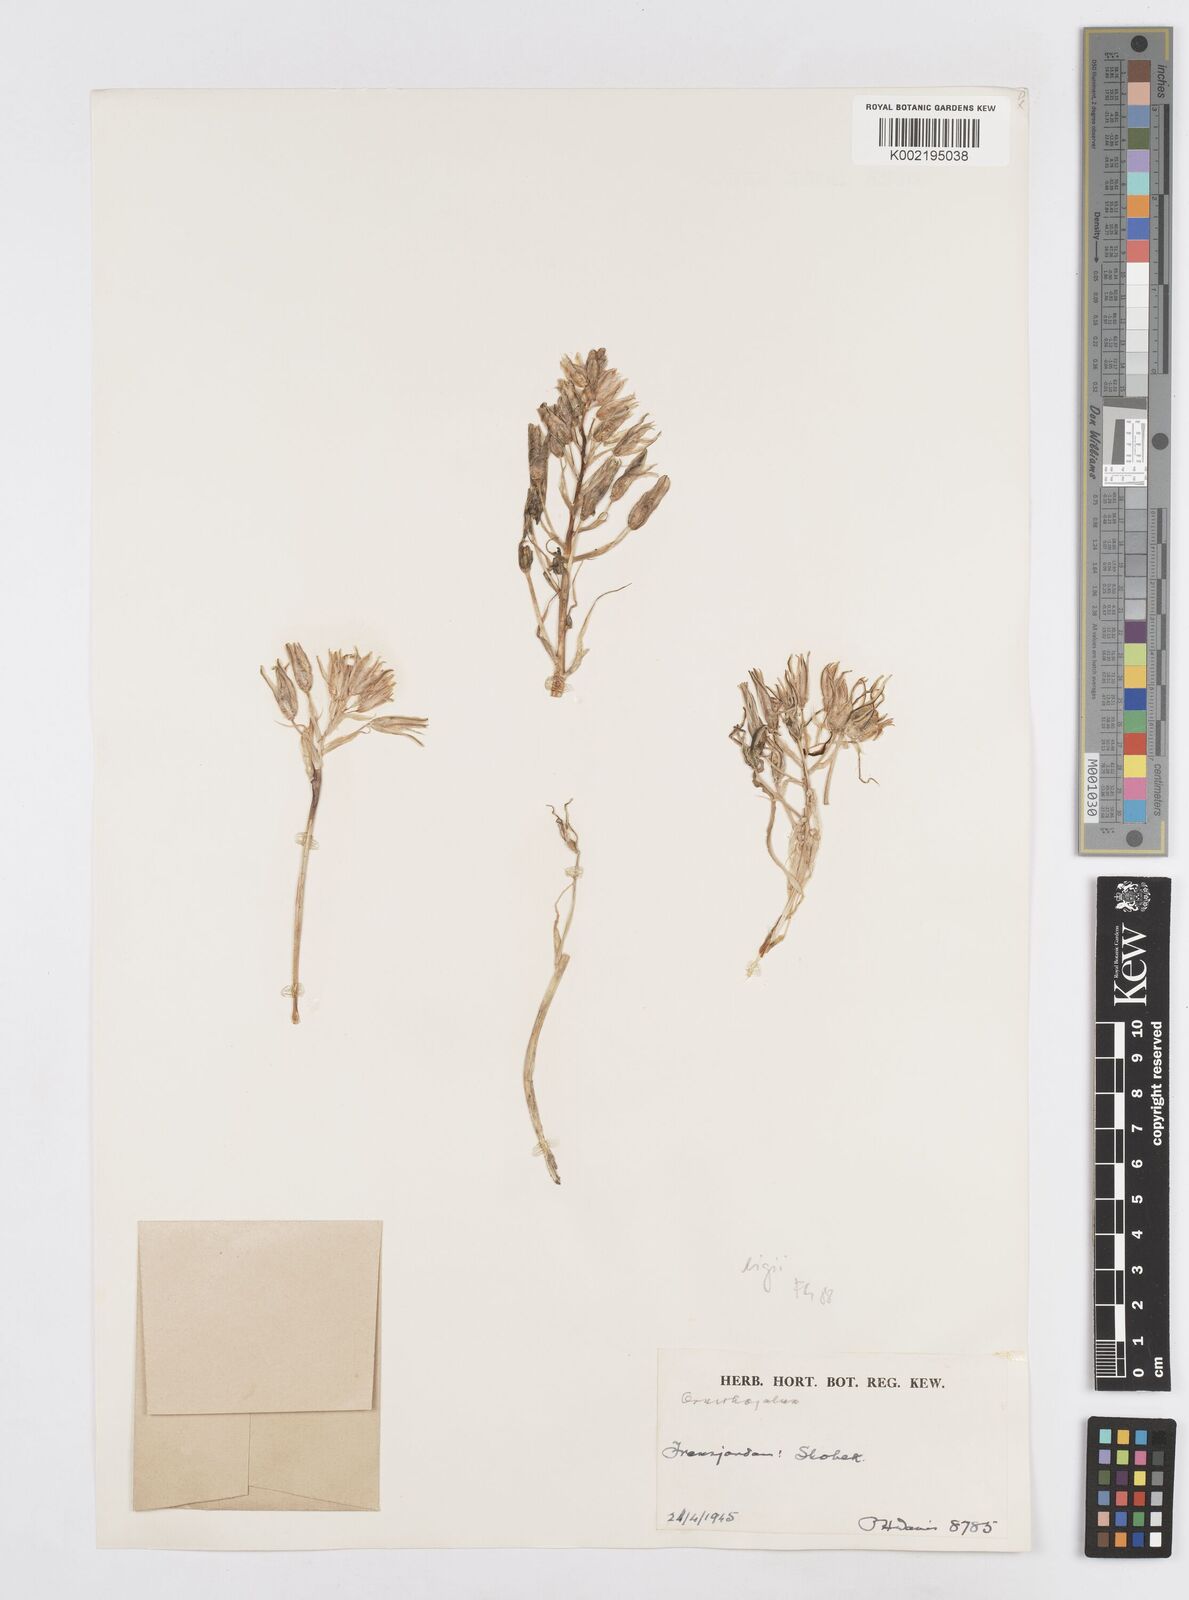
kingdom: Plantae
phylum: Tracheophyta
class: Liliopsida
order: Asparagales
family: Asparagaceae
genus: Ornithogalum
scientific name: Ornithogalum neurostegium
